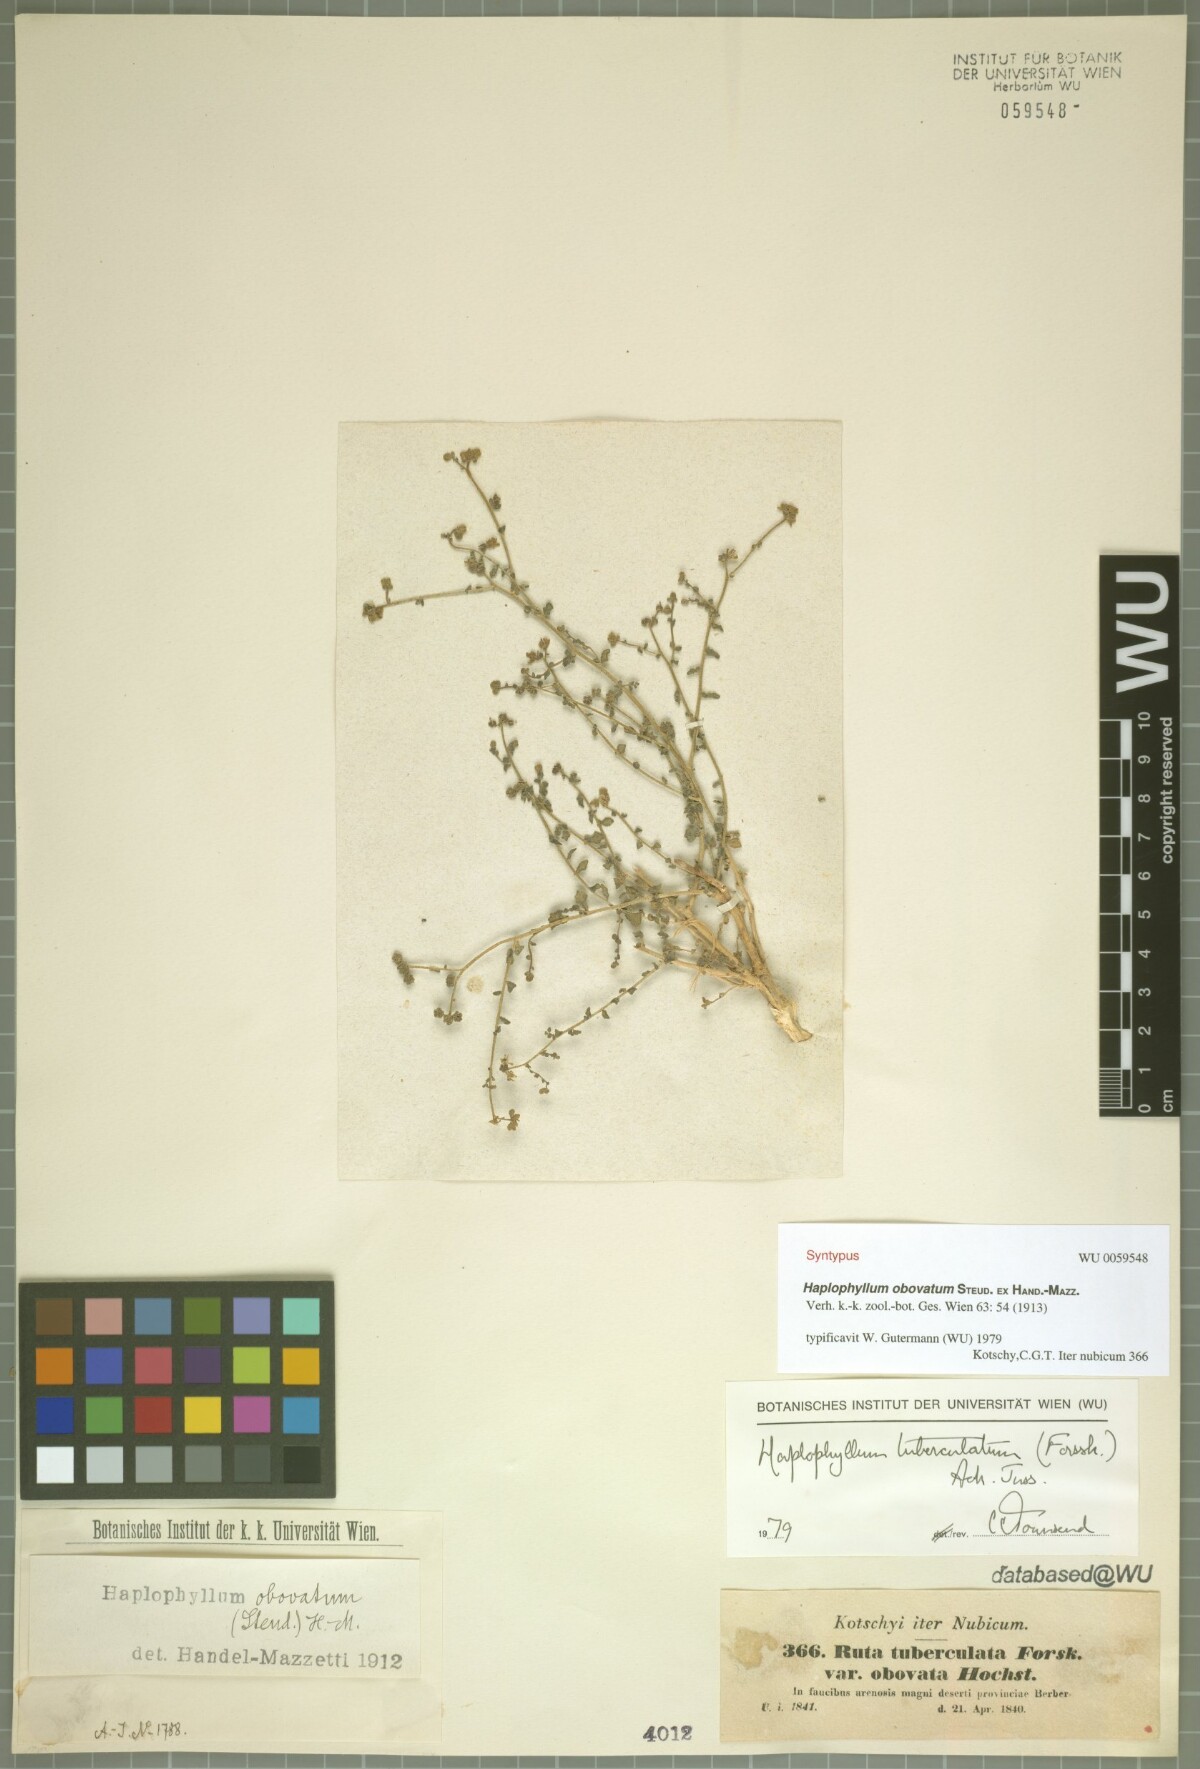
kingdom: Plantae
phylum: Tracheophyta
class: Magnoliopsida
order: Sapindales
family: Rutaceae
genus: Haplophyllum
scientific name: Haplophyllum tuberculatum
